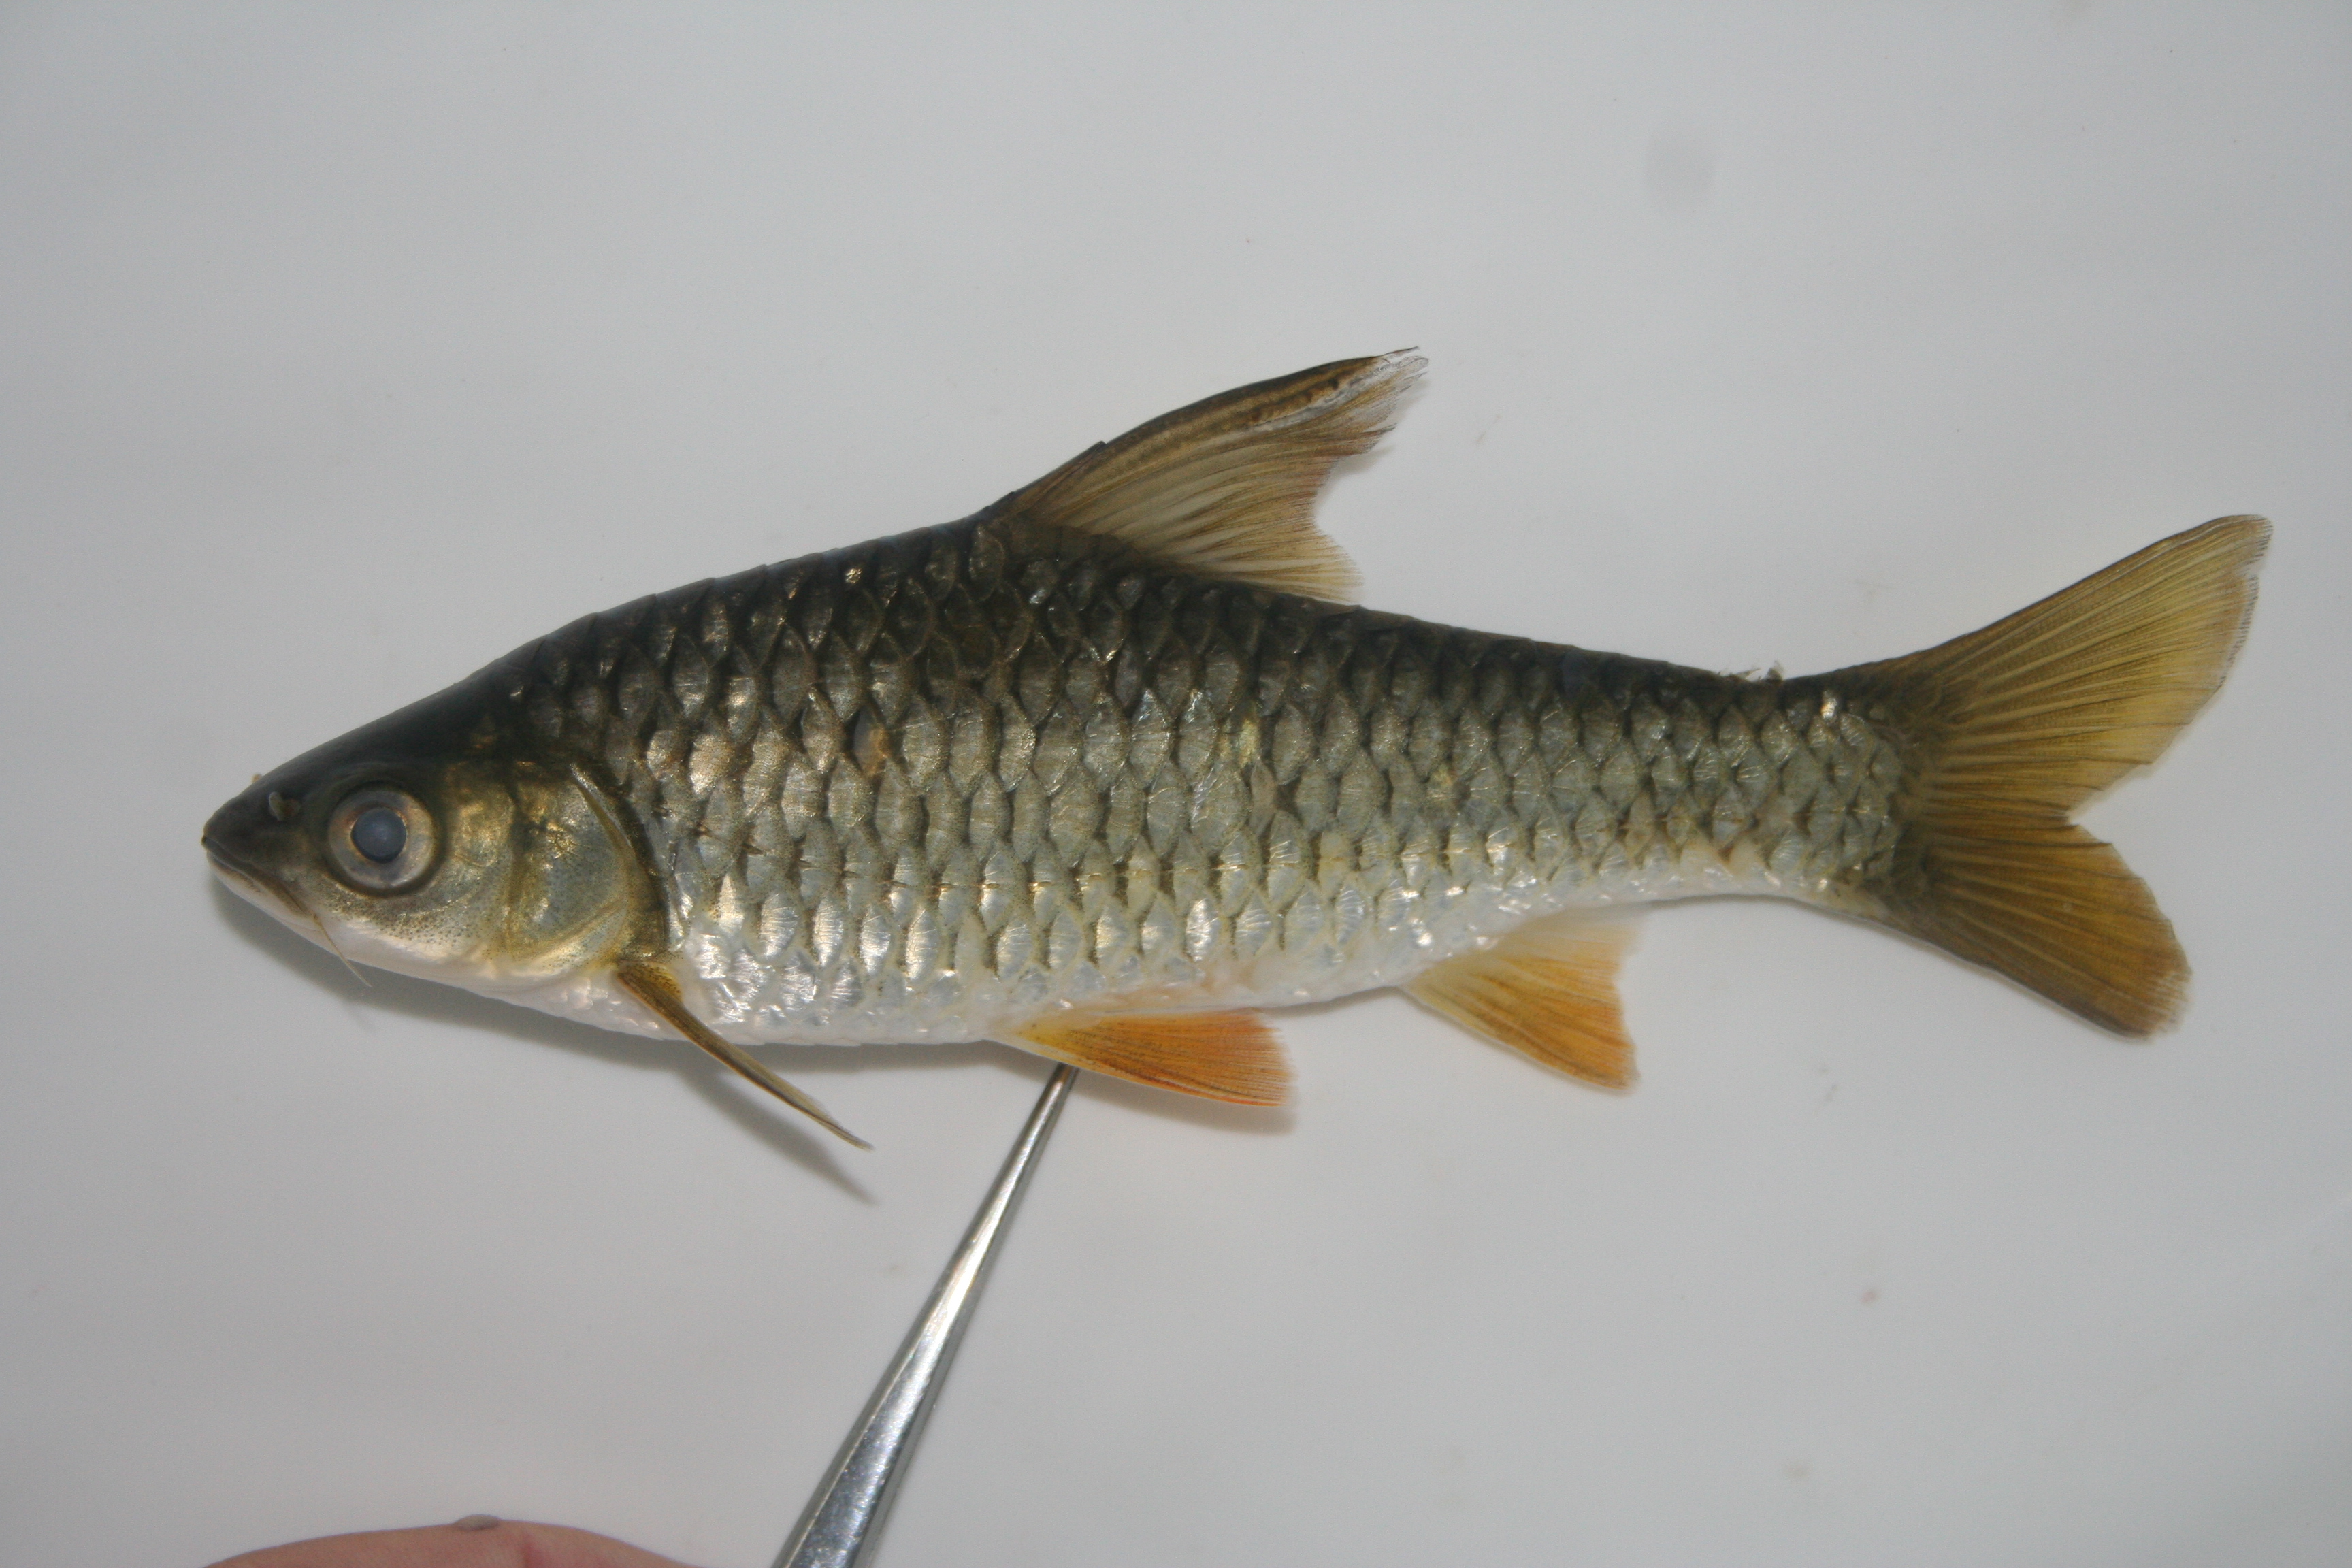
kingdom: Animalia
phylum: Chordata
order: Cypriniformes
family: Cyprinidae
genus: Enteromius
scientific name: Enteromius argenteus
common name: Rosefin barb
